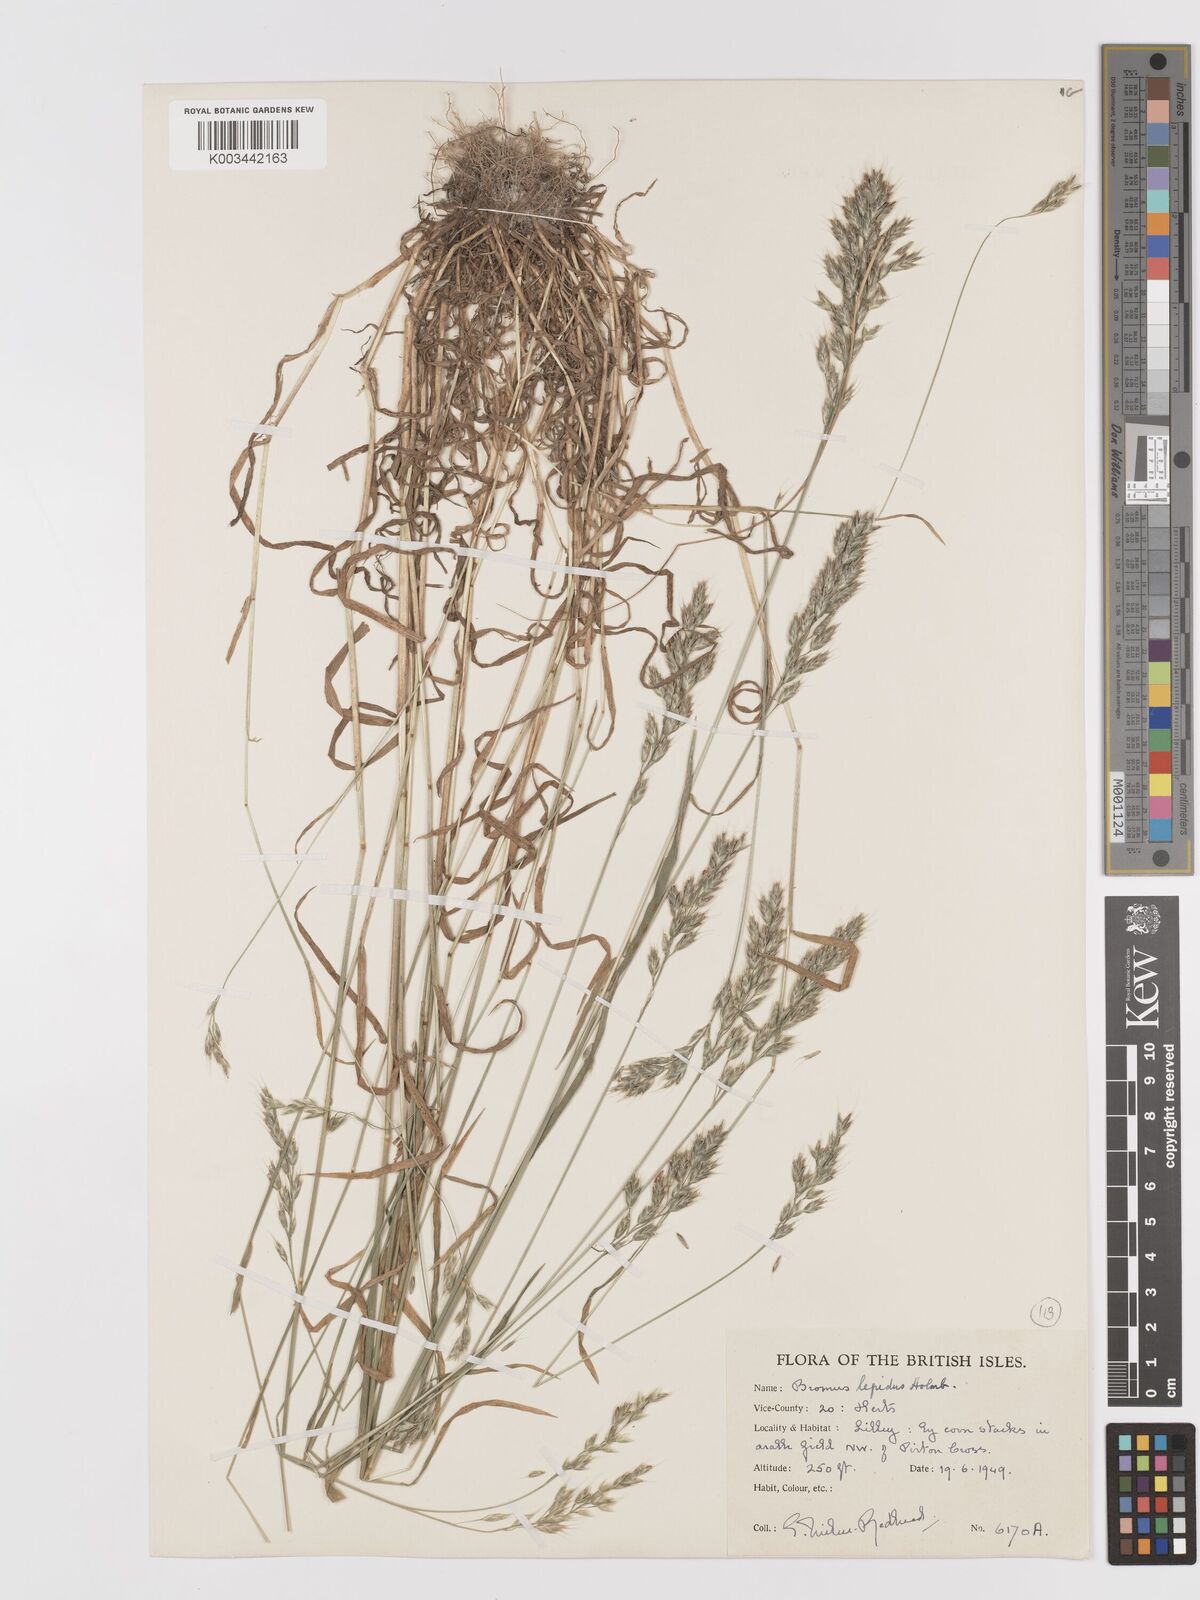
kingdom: Plantae
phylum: Tracheophyta
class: Liliopsida
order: Poales
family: Poaceae
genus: Bromus
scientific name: Bromus lepidus
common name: Slender soft-brome
